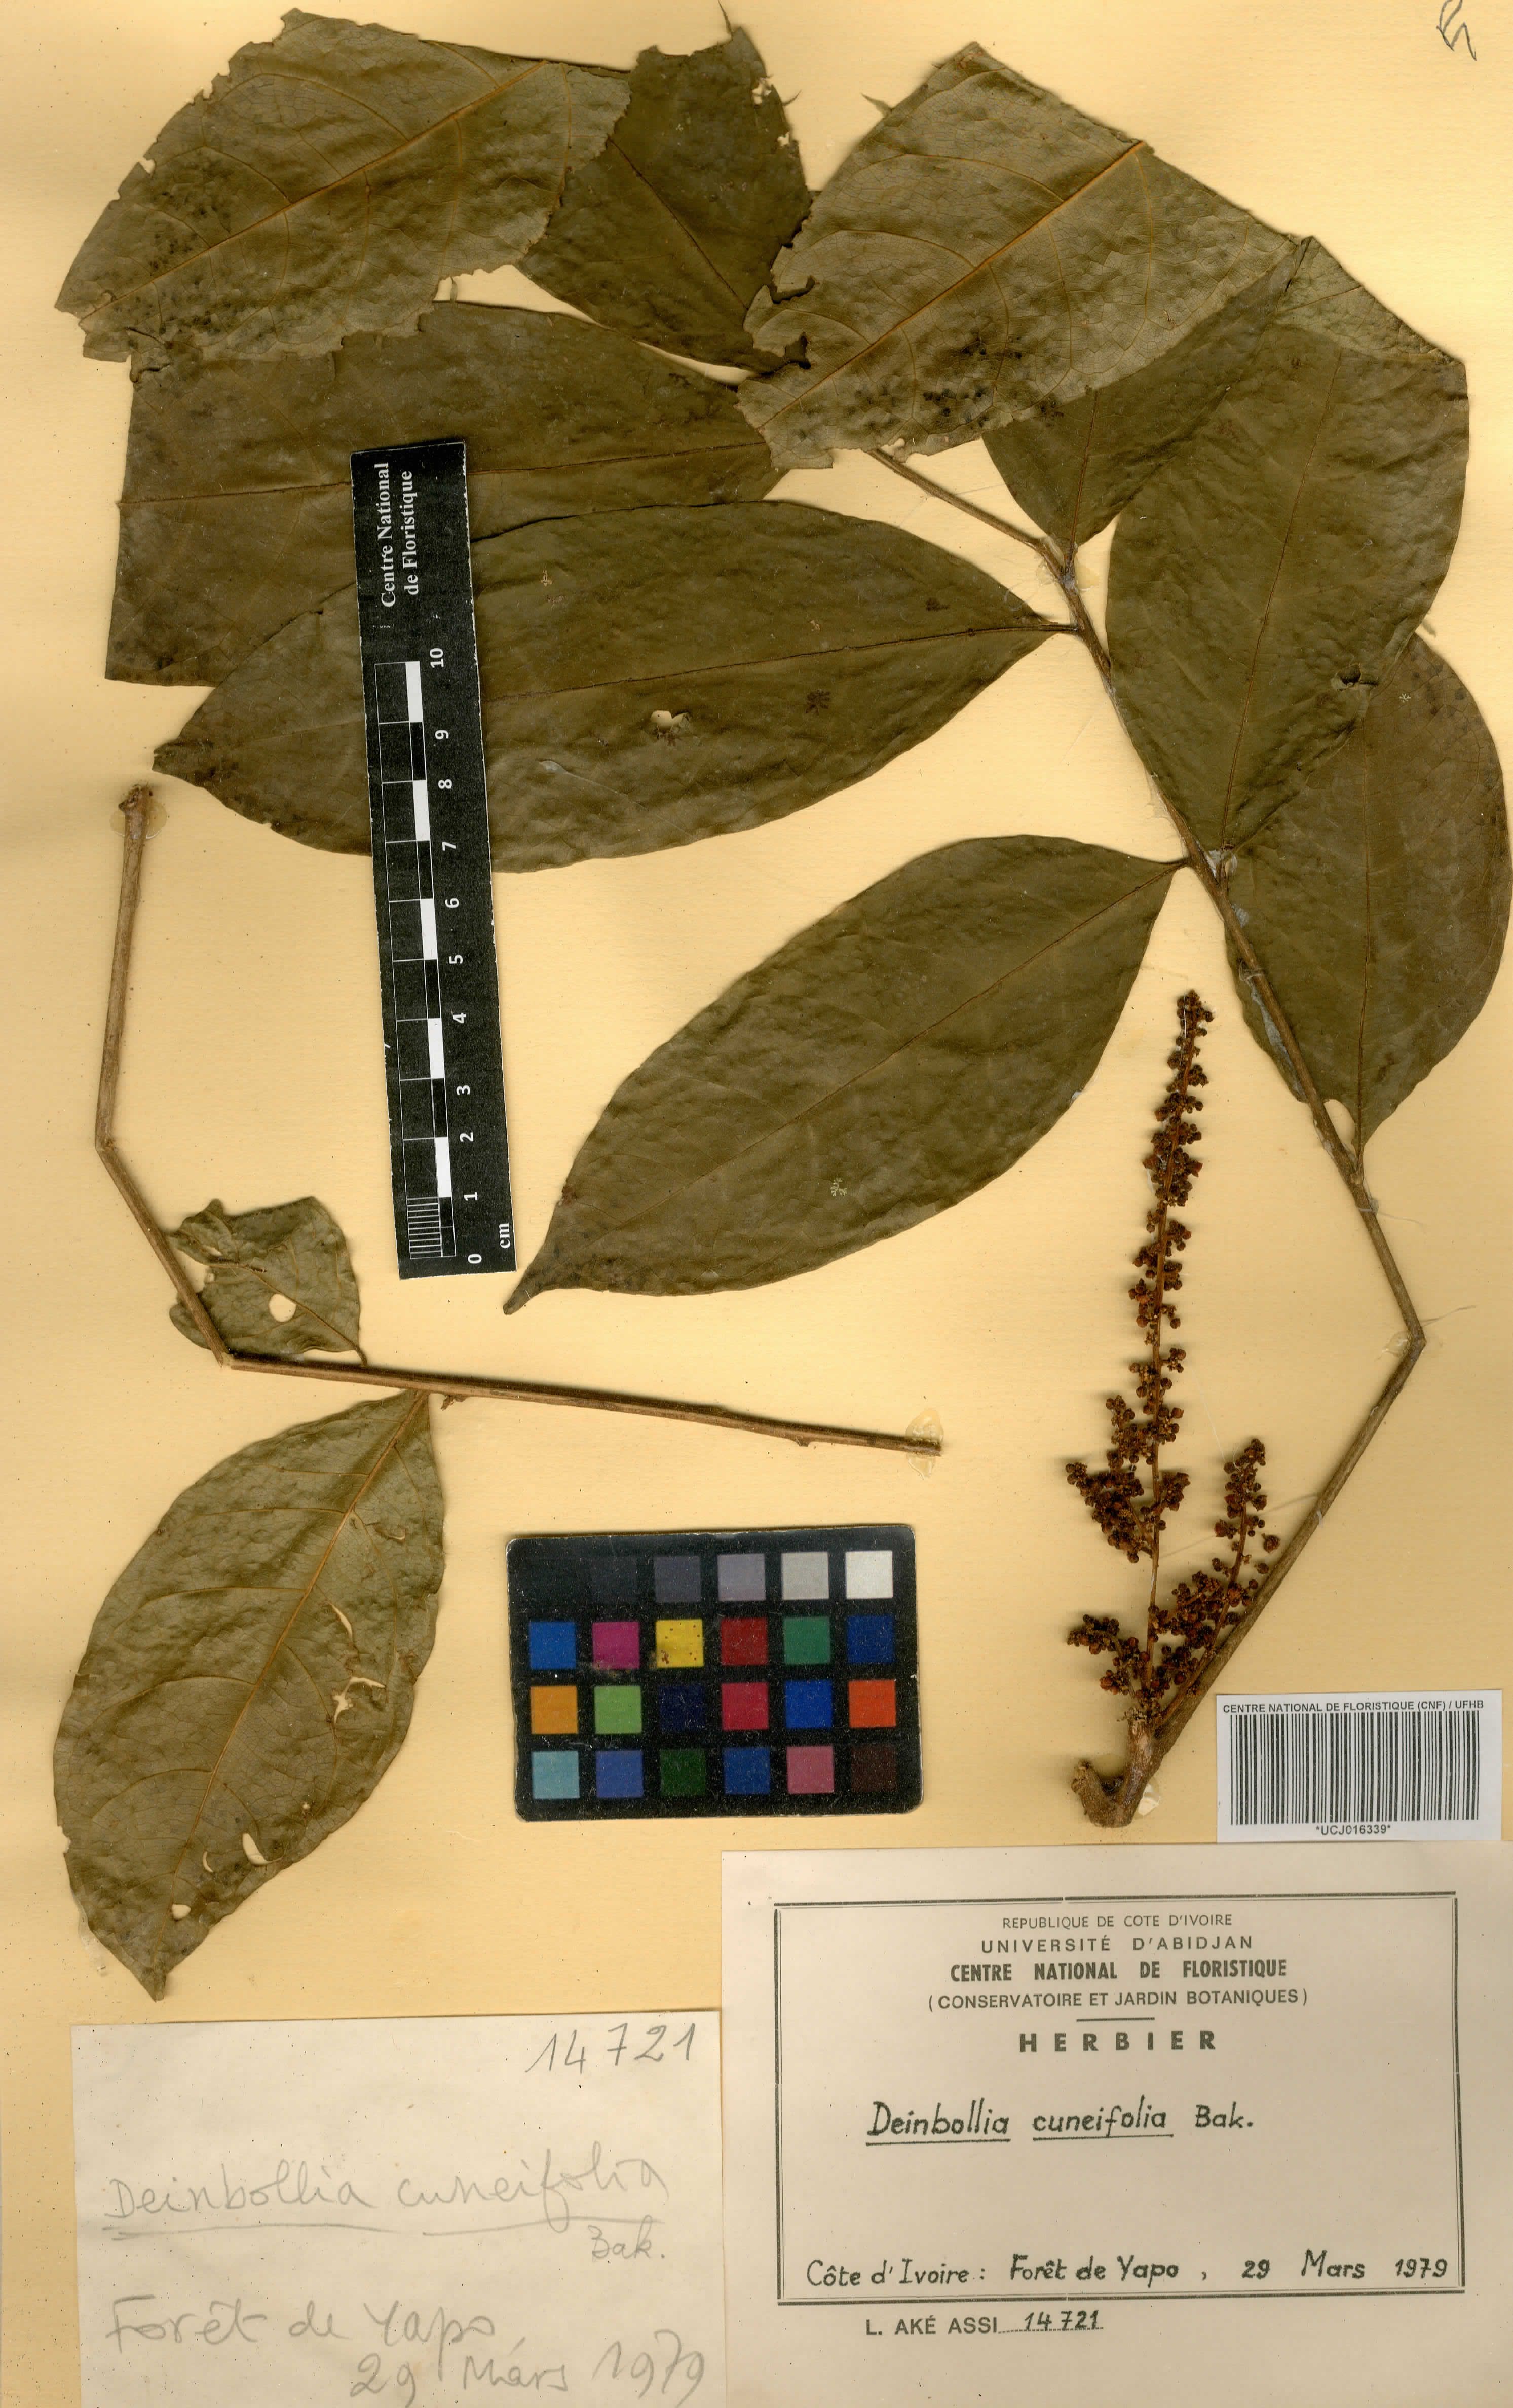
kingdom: Plantae
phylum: Tracheophyta
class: Magnoliopsida
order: Sapindales
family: Sapindaceae
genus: Deinbollia
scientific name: Deinbollia cuneifolia
